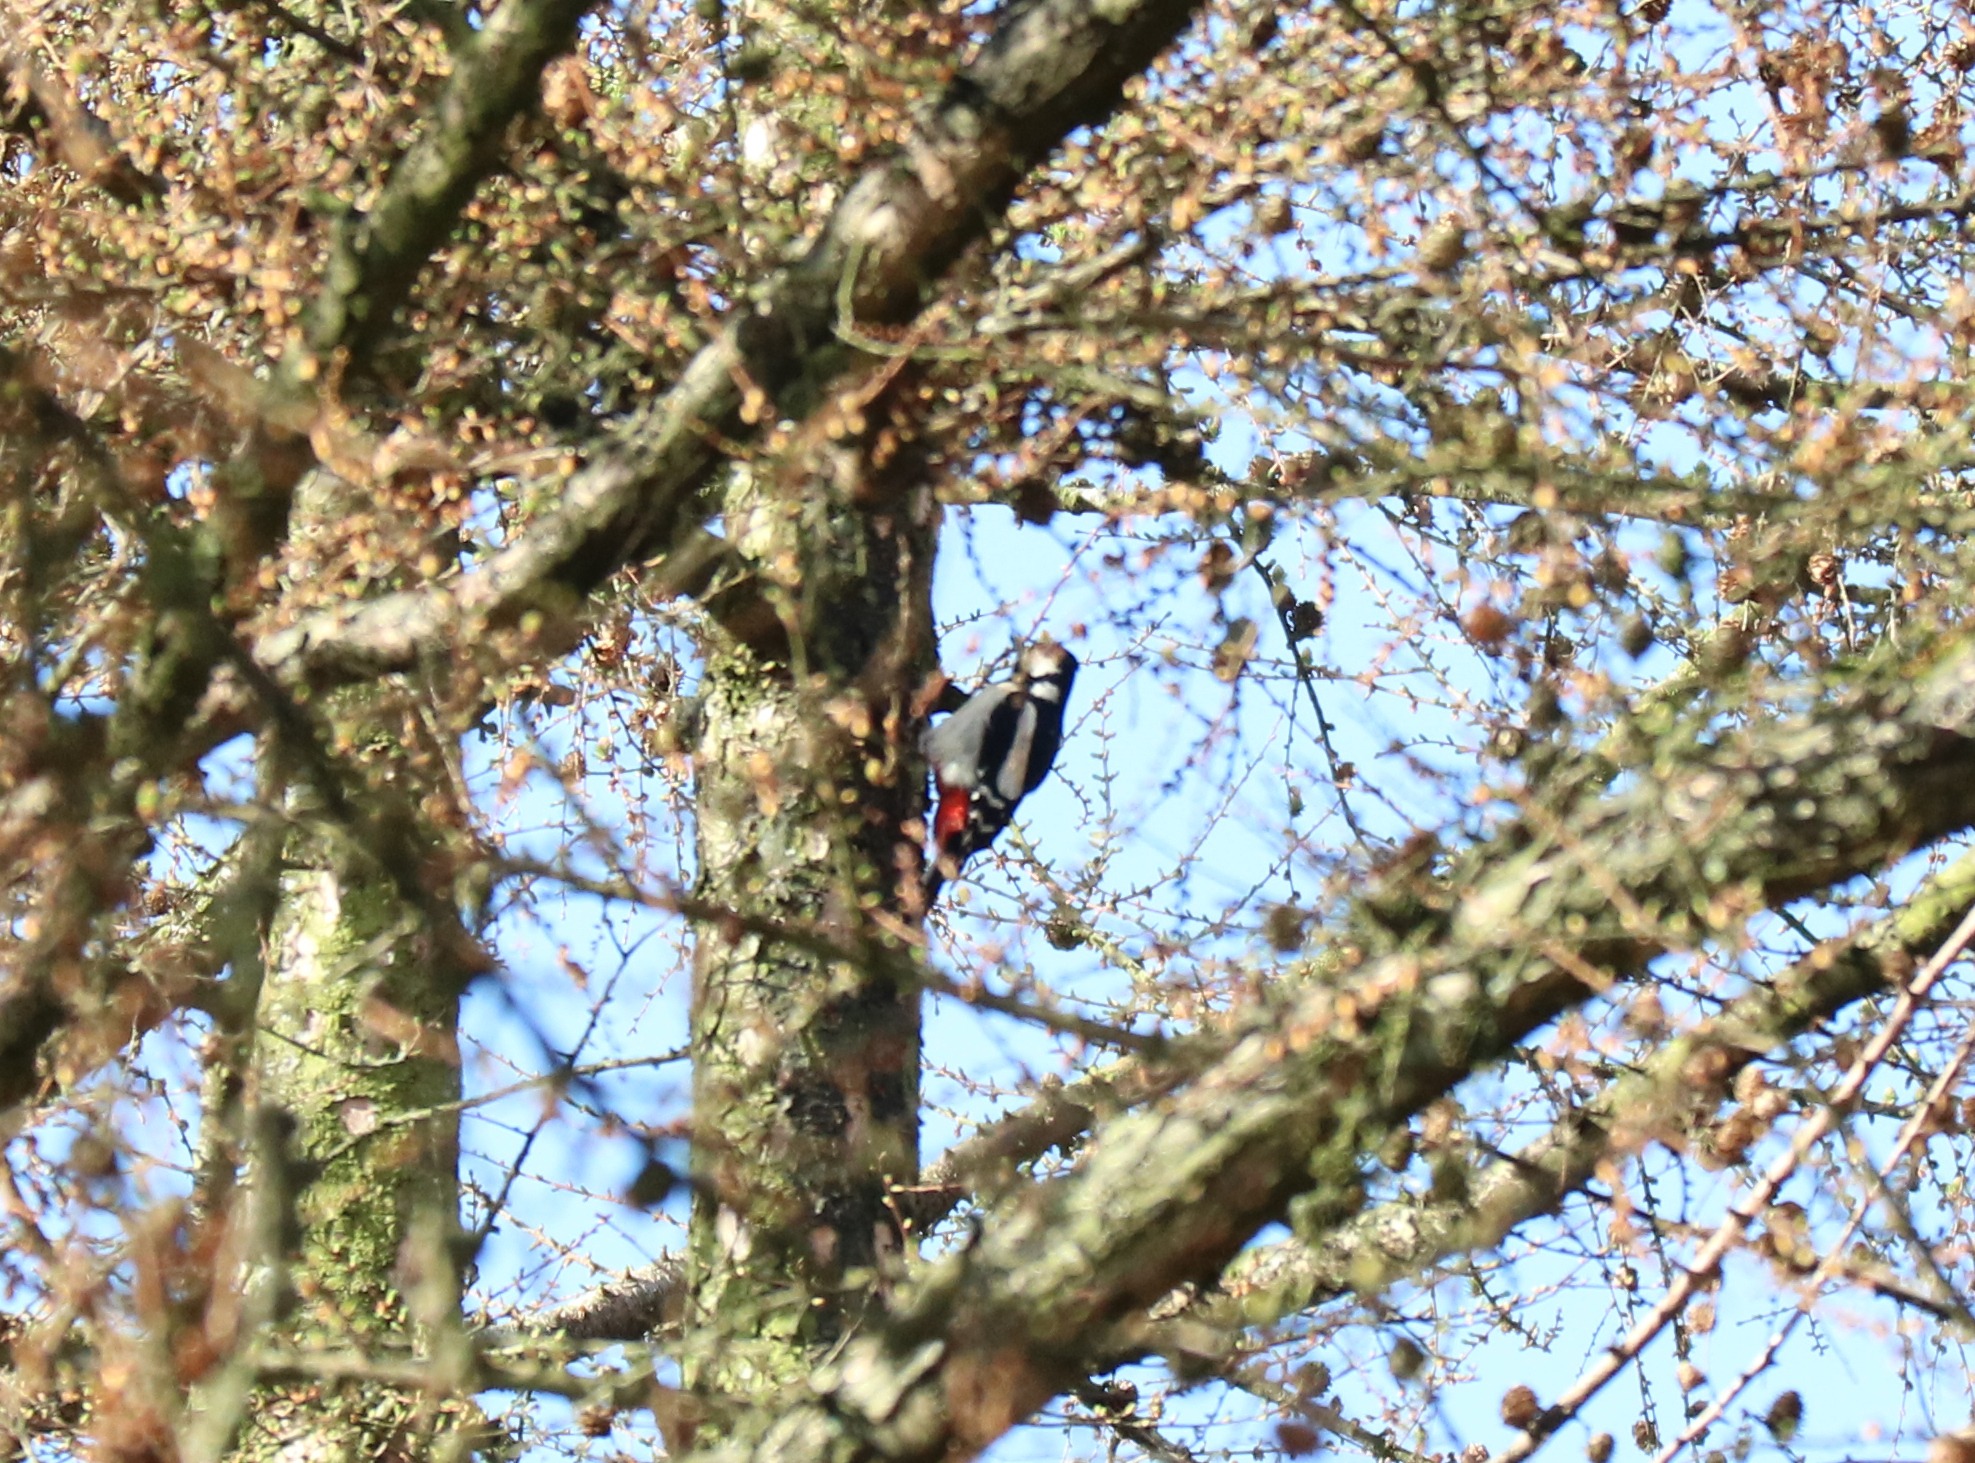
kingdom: Animalia
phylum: Chordata
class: Aves
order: Piciformes
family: Picidae
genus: Dendrocopos
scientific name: Dendrocopos major
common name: Stor flagspætte
